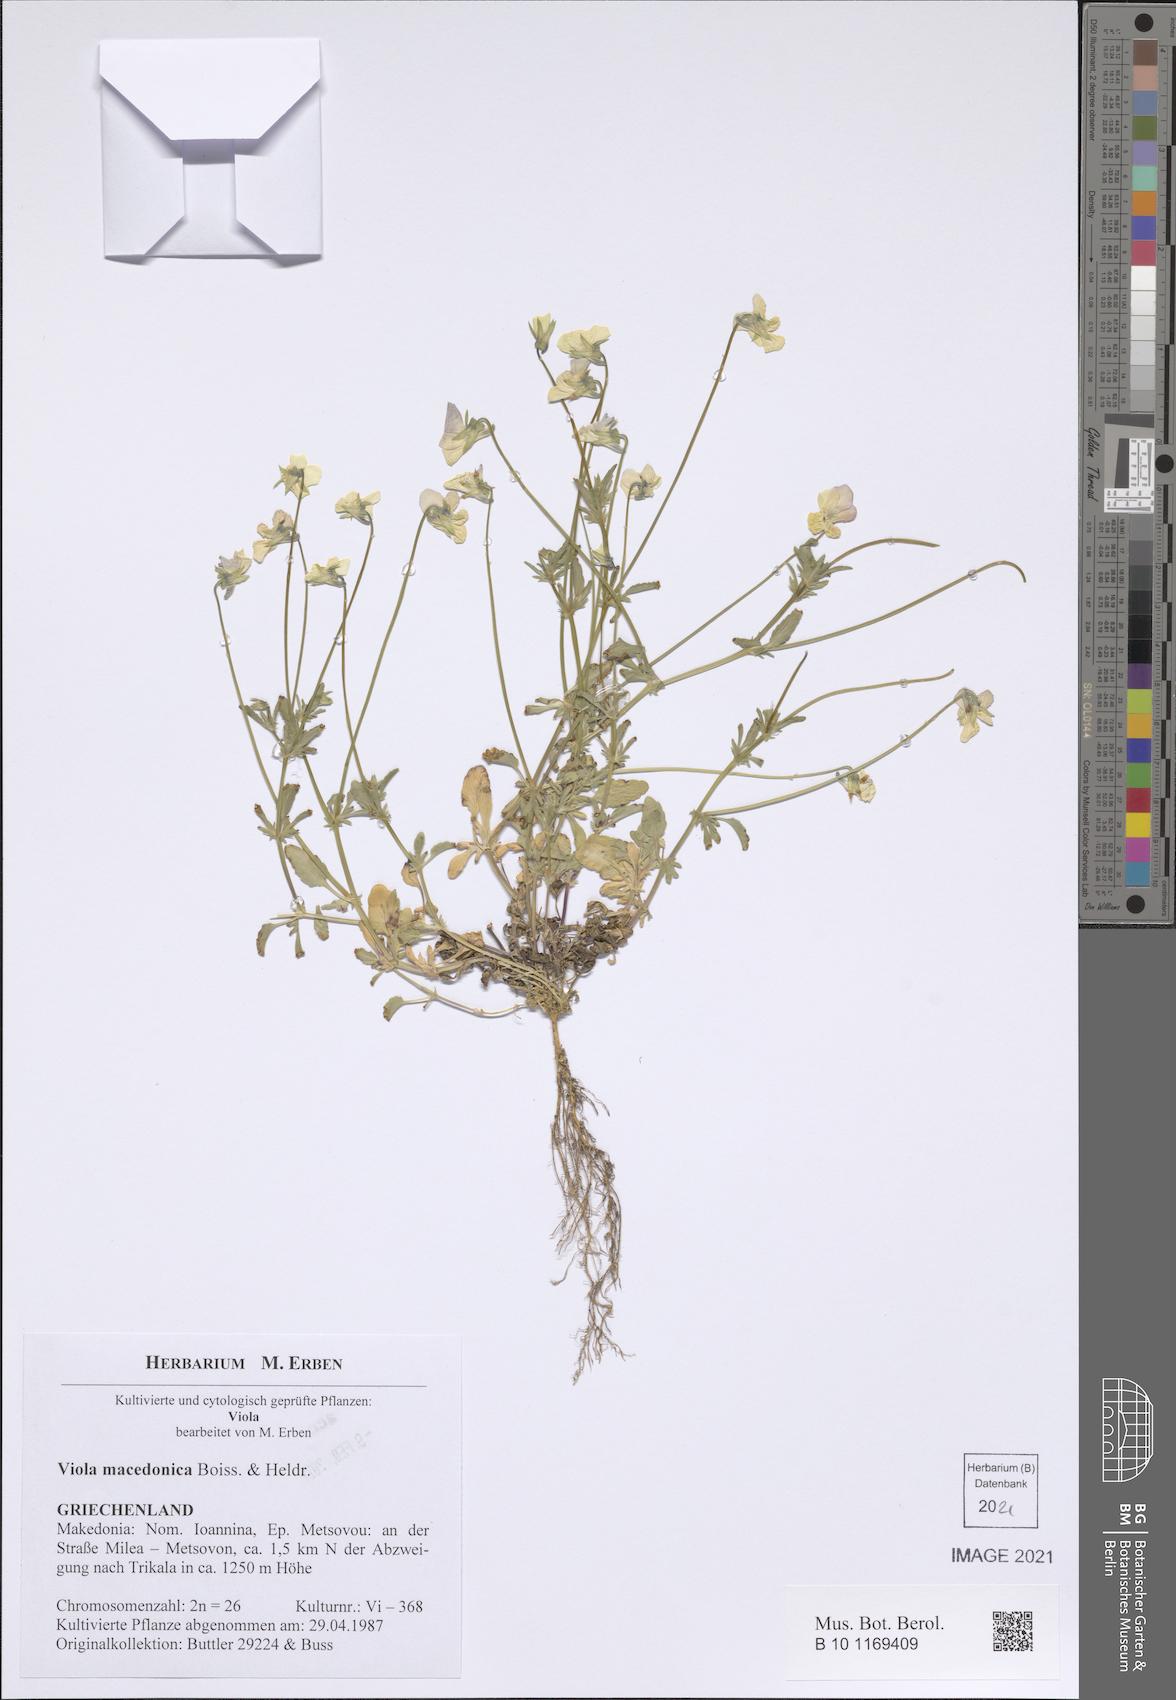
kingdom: Plantae
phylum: Tracheophyta
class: Magnoliopsida
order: Malpighiales
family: Violaceae
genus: Viola
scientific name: Viola tricolor
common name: Pansy
